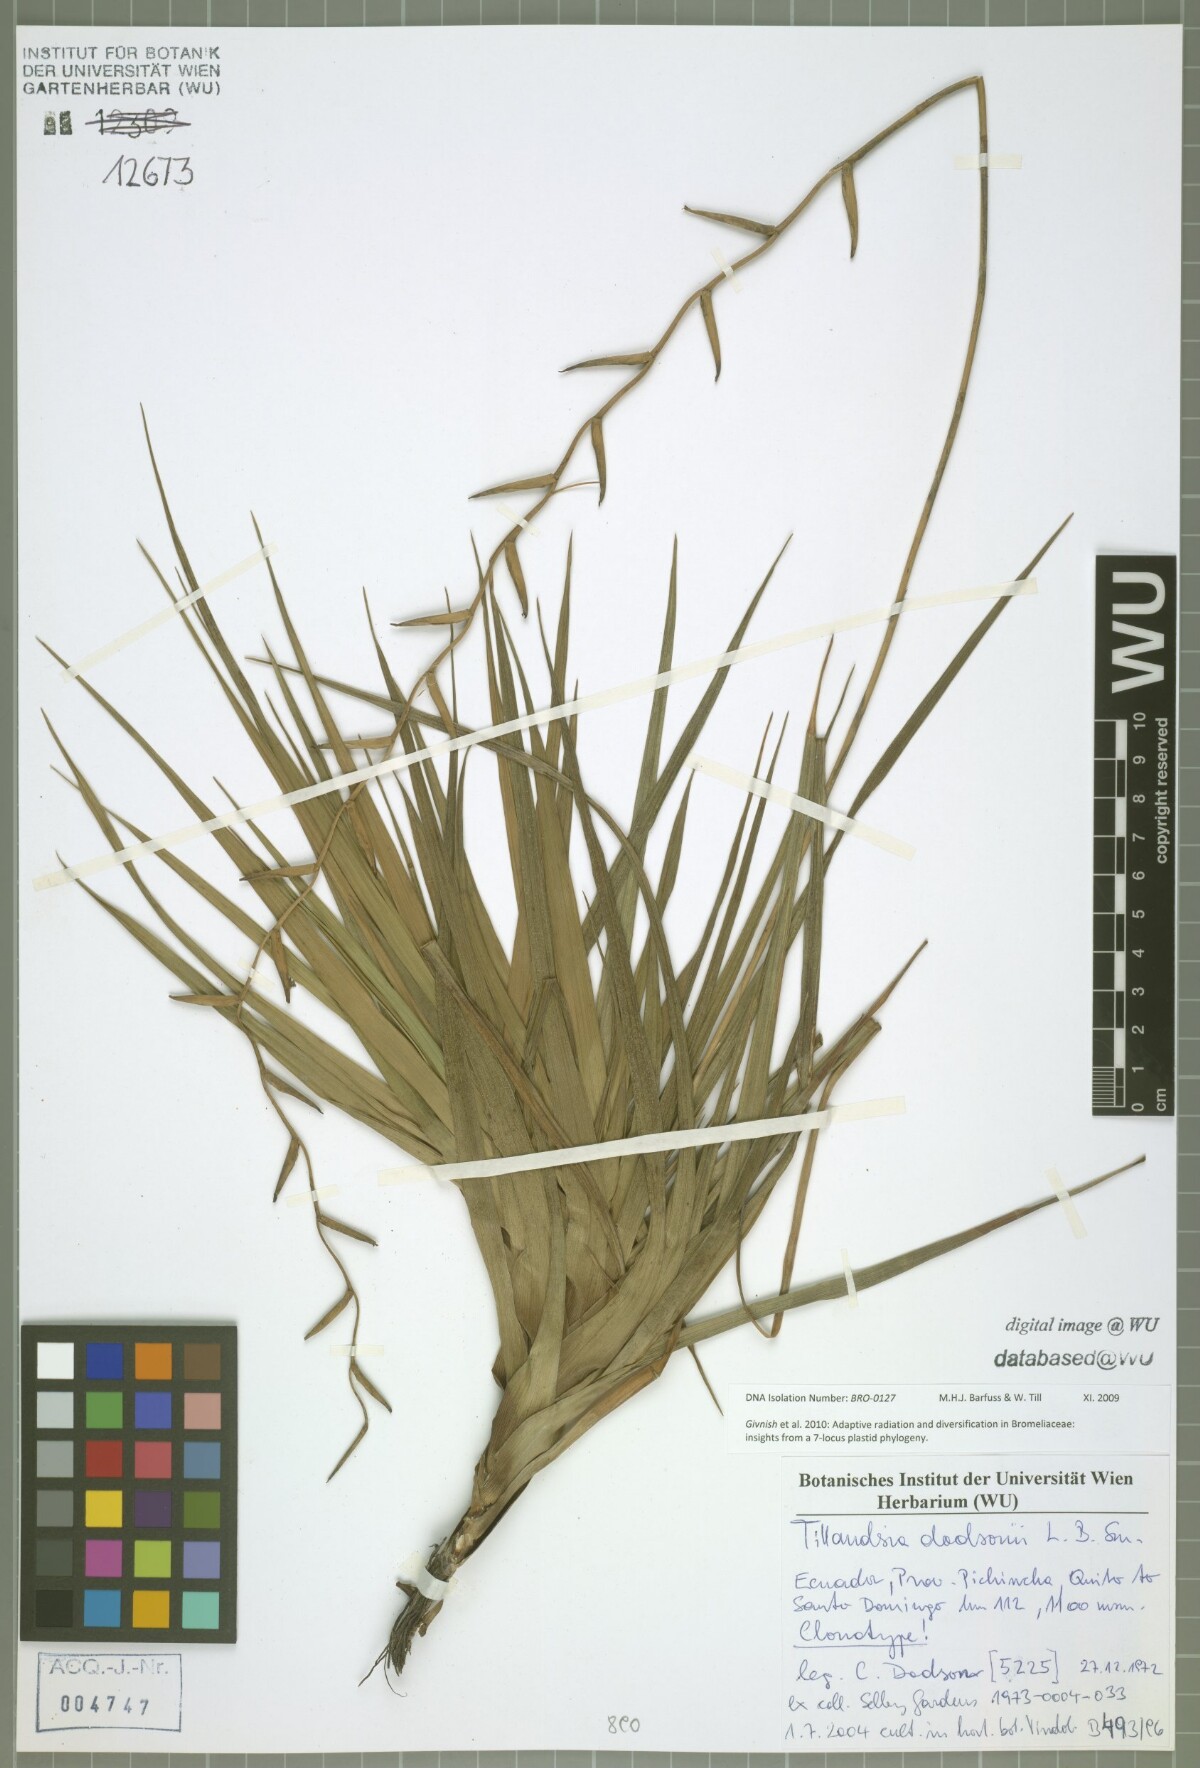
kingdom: Plantae
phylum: Tracheophyta
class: Liliopsida
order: Poales
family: Bromeliaceae
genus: Lemeltonia
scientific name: Lemeltonia dodsonii
